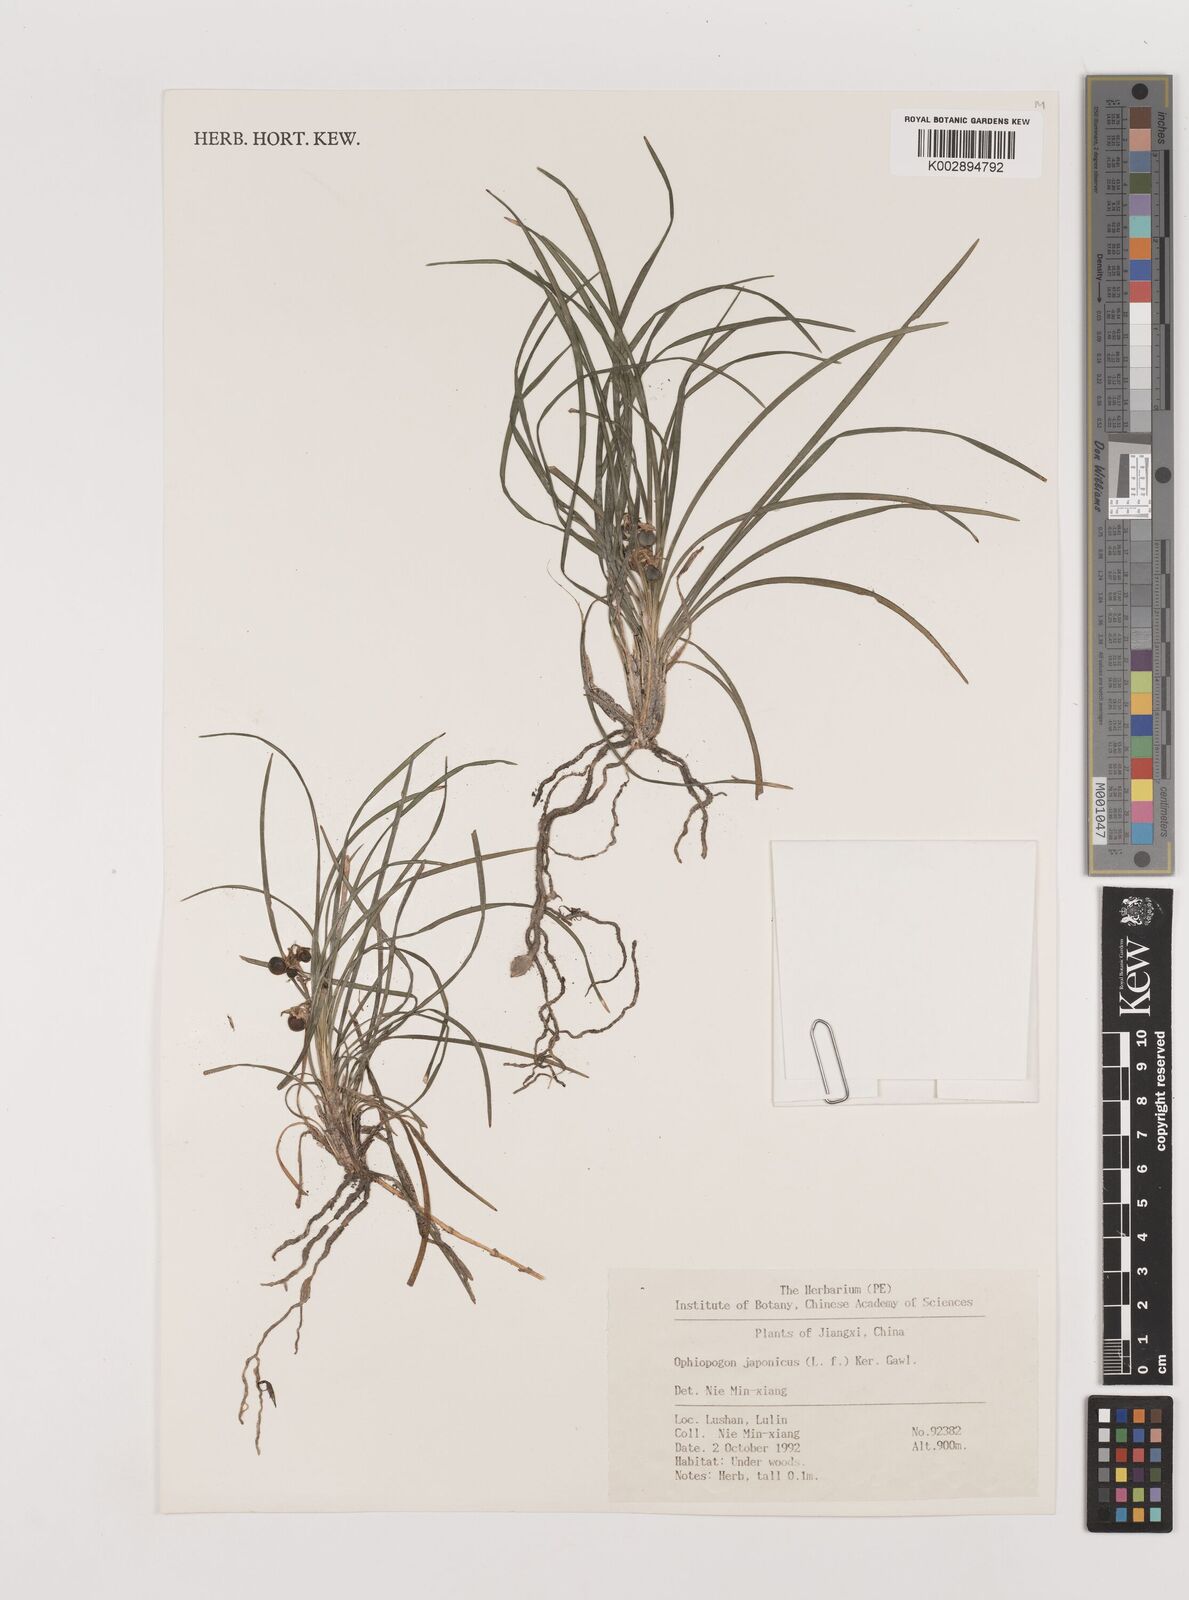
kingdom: Plantae
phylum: Tracheophyta
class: Liliopsida
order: Asparagales
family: Asparagaceae
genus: Ophiopogon
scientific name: Ophiopogon japonicus
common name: Dwarf lilyturf
